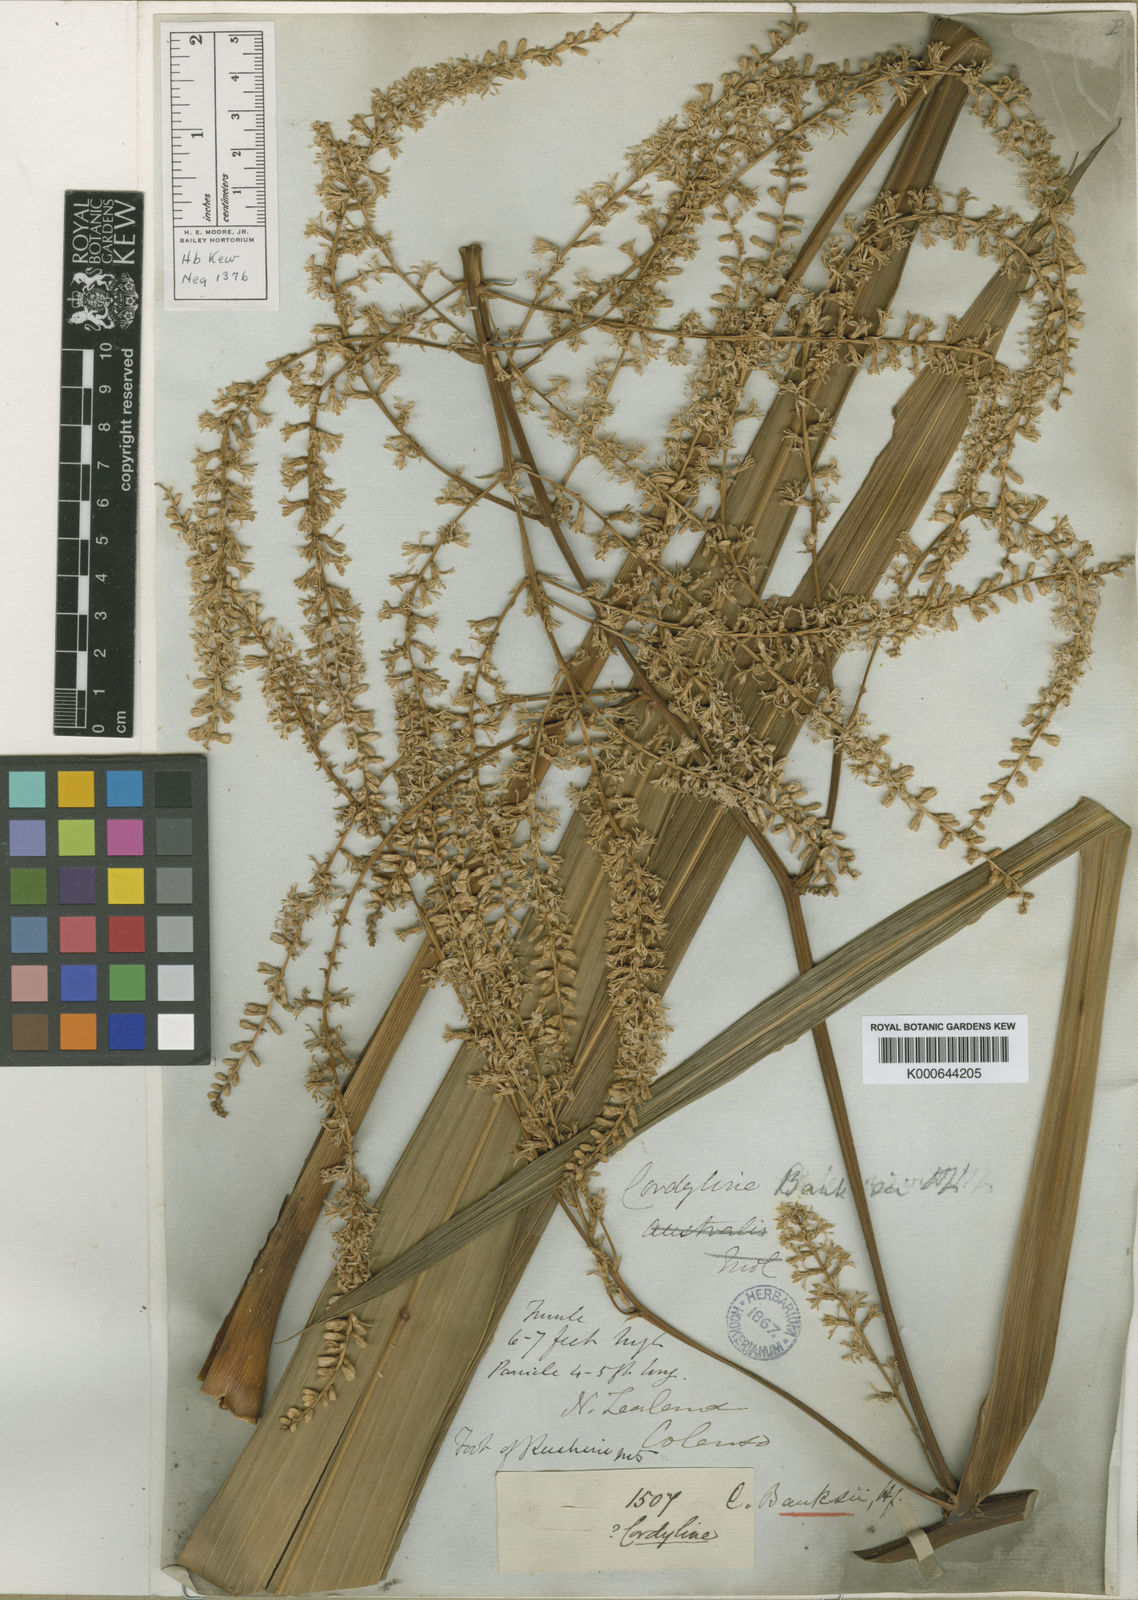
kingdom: Plantae
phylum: Tracheophyta
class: Liliopsida
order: Asparagales
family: Asparagaceae
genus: Cordyline
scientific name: Cordyline banksii
